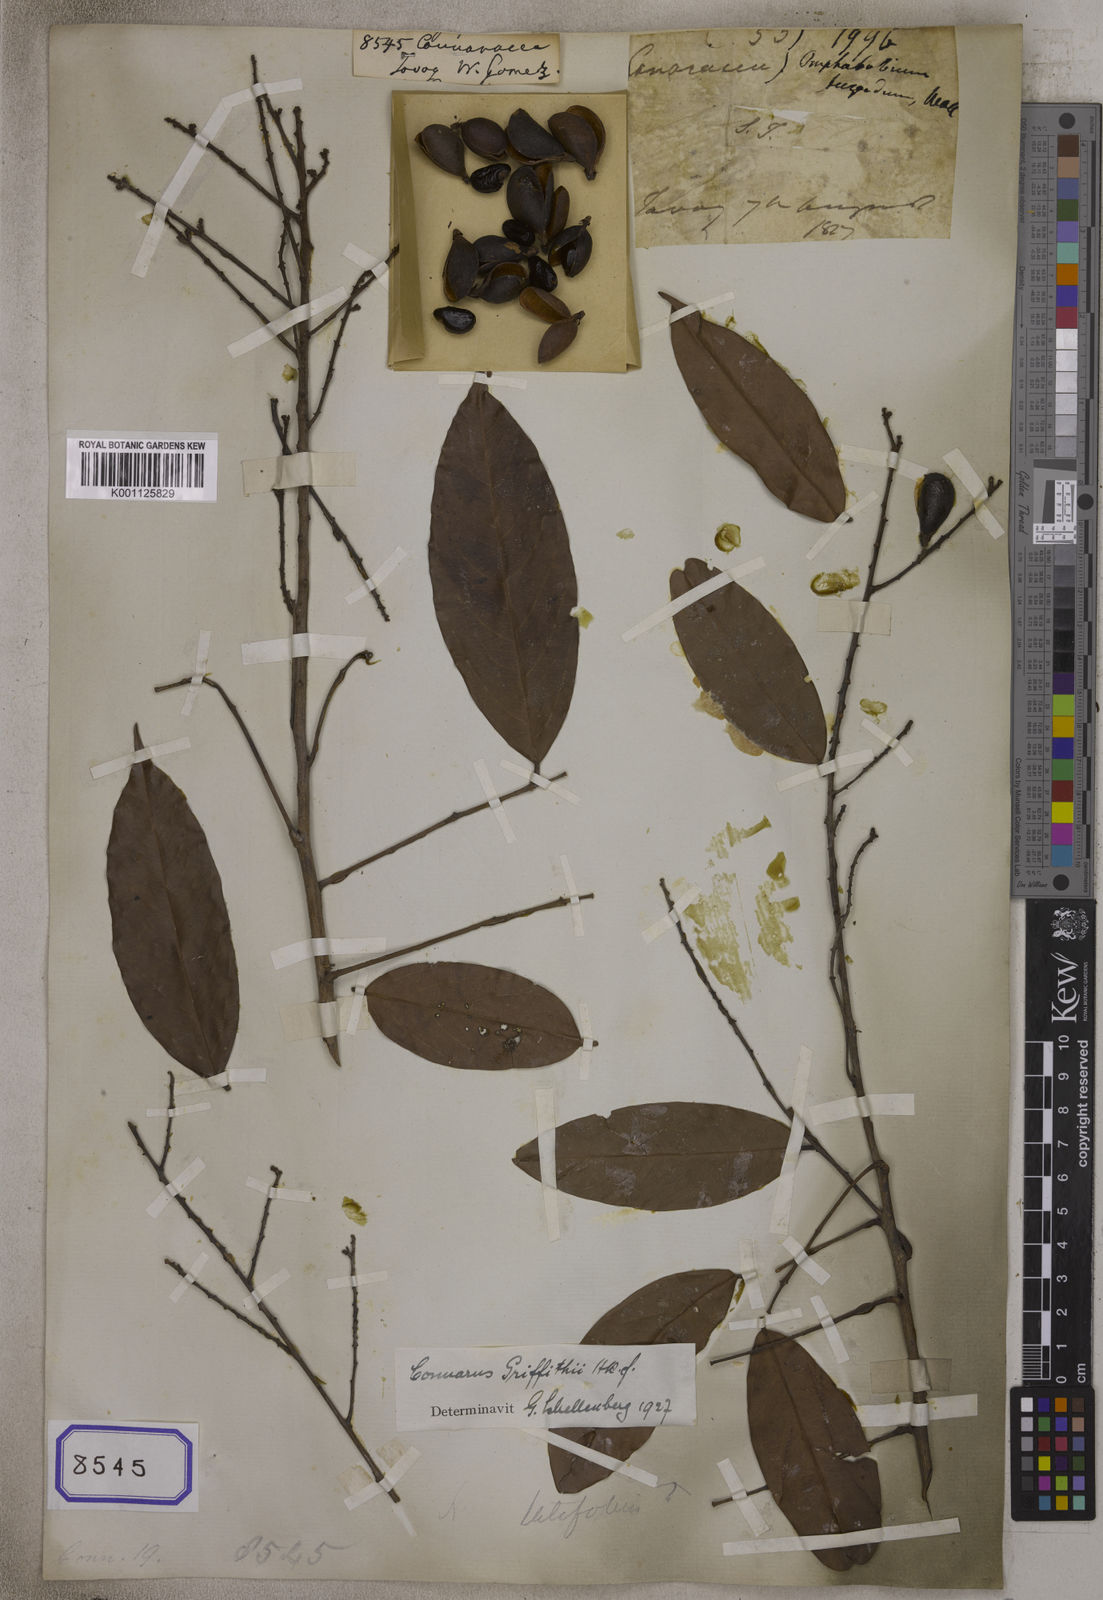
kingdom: Plantae
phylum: Tracheophyta
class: Magnoliopsida
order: Oxalidales
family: Connaraceae
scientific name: Connaraceae
